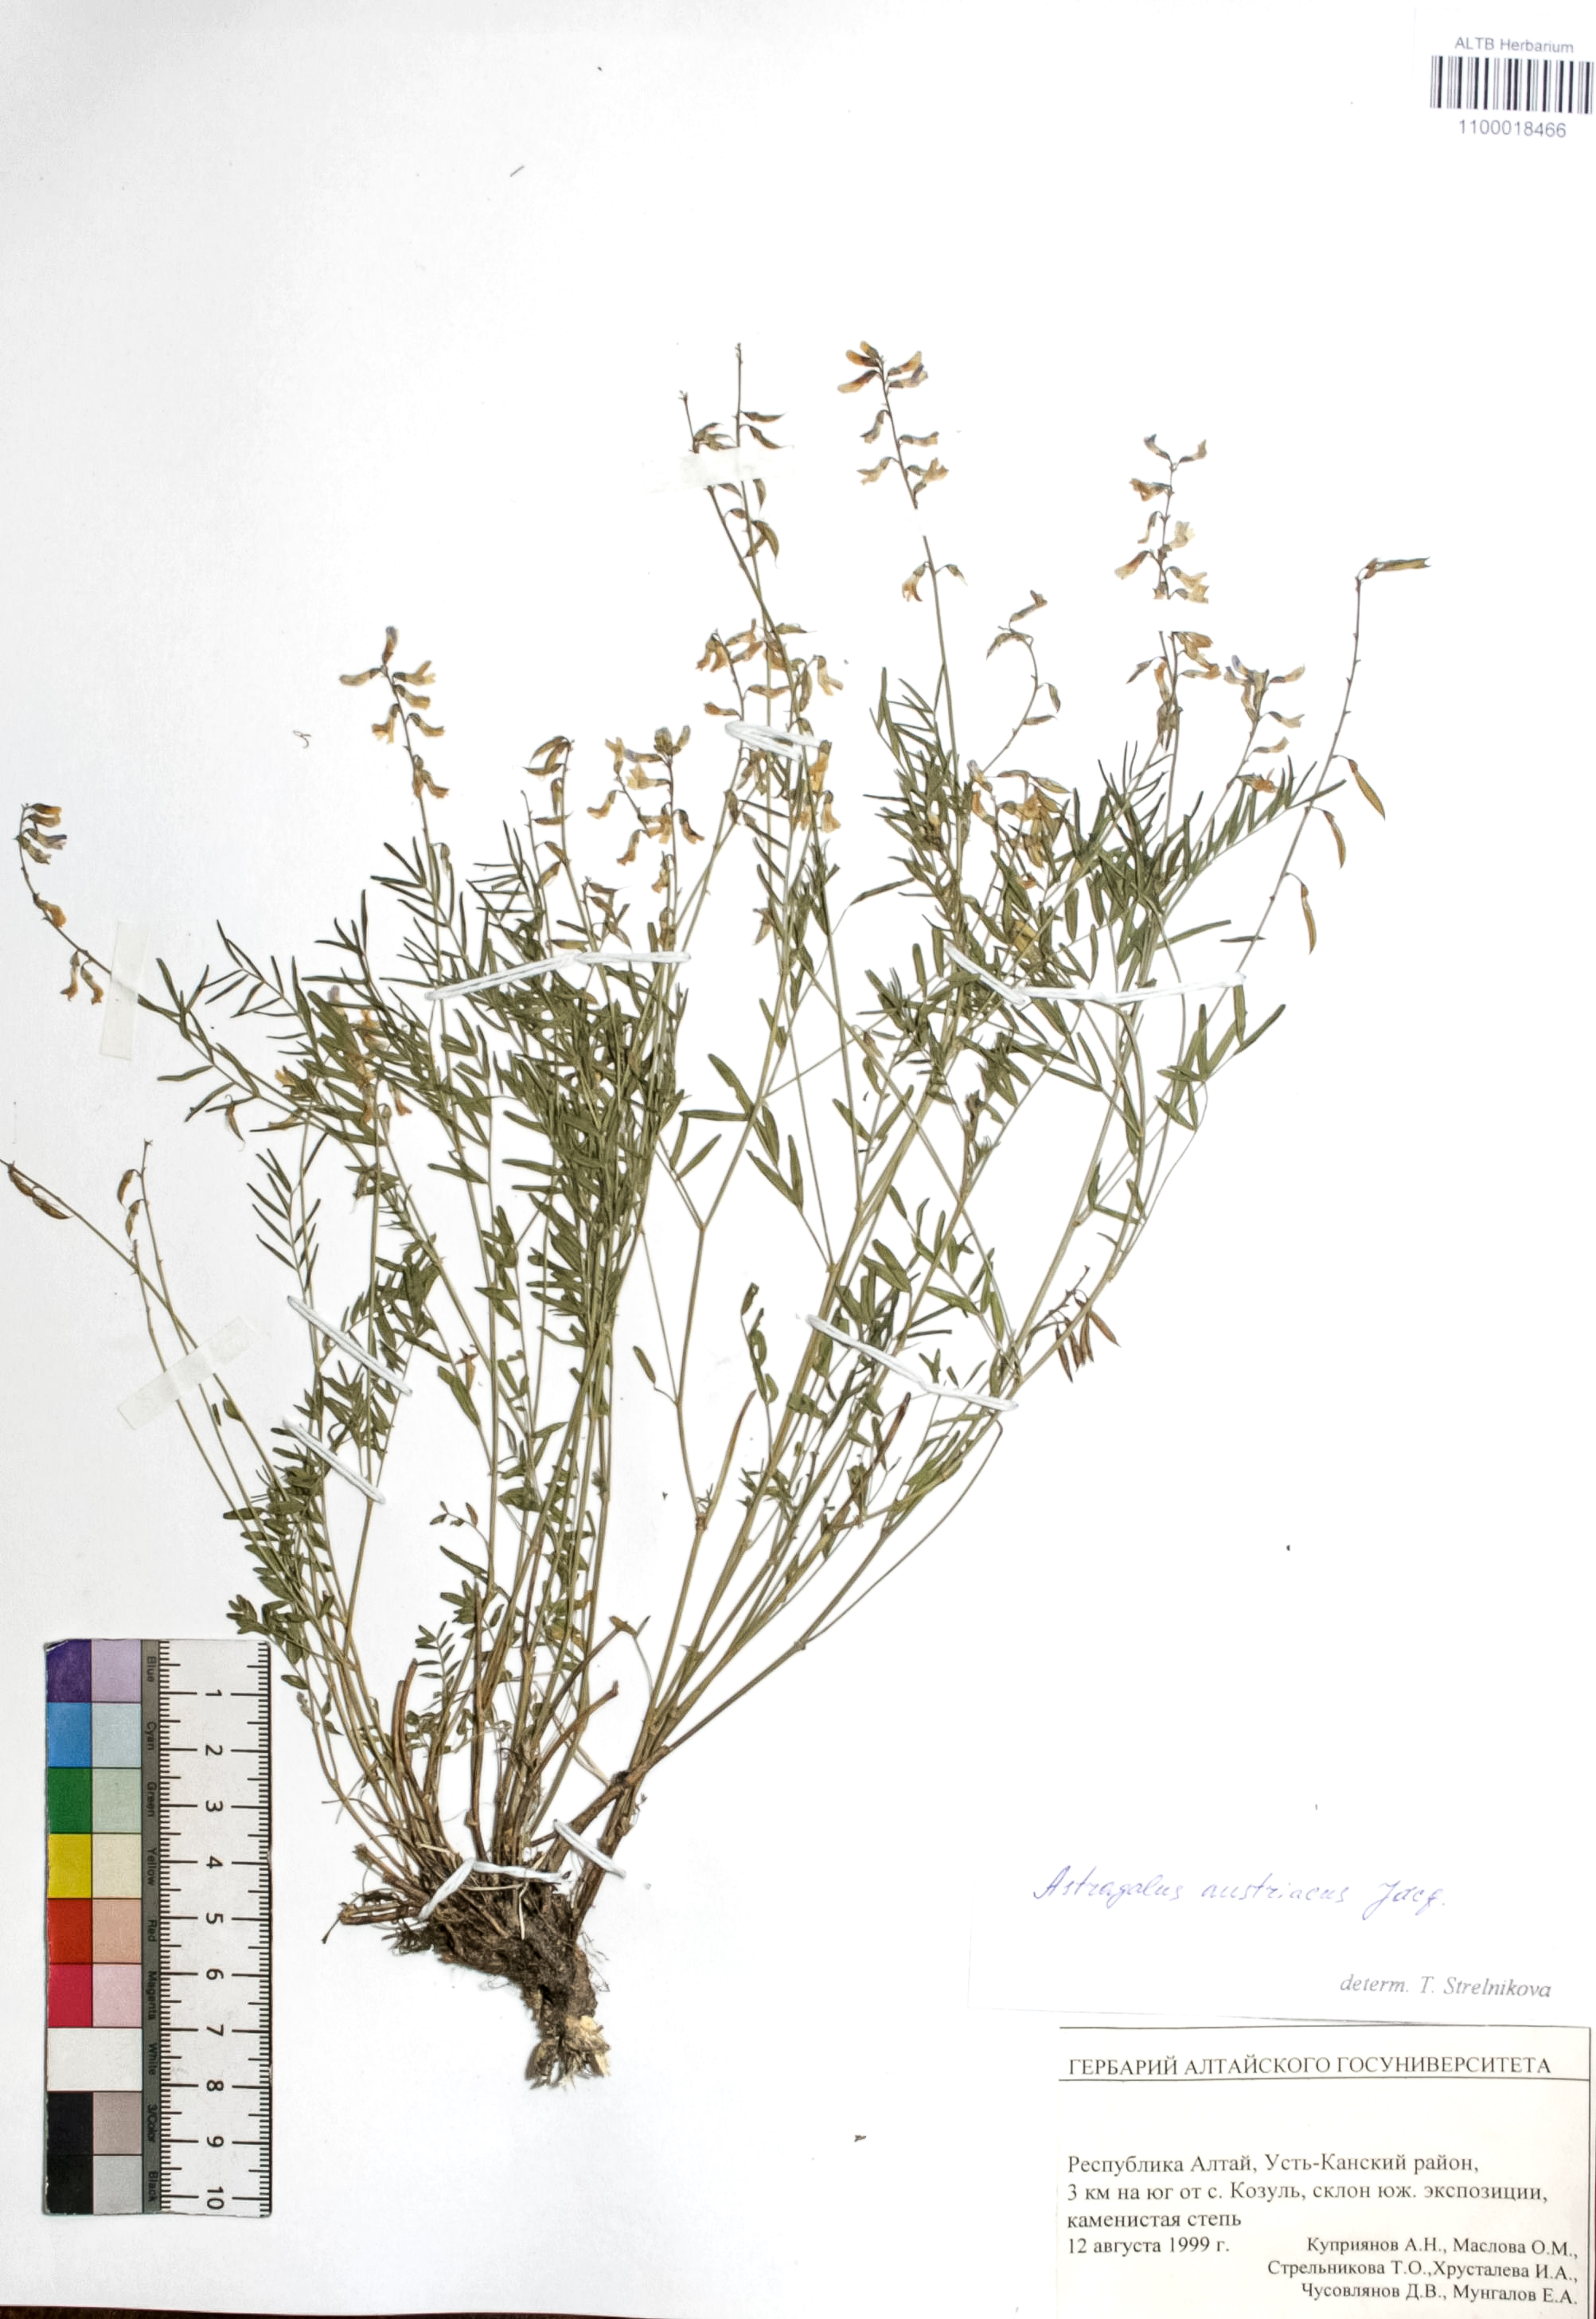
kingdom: Plantae
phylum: Tracheophyta
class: Magnoliopsida
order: Fabales
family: Fabaceae
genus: Astragalus
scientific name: Astragalus austriacus
